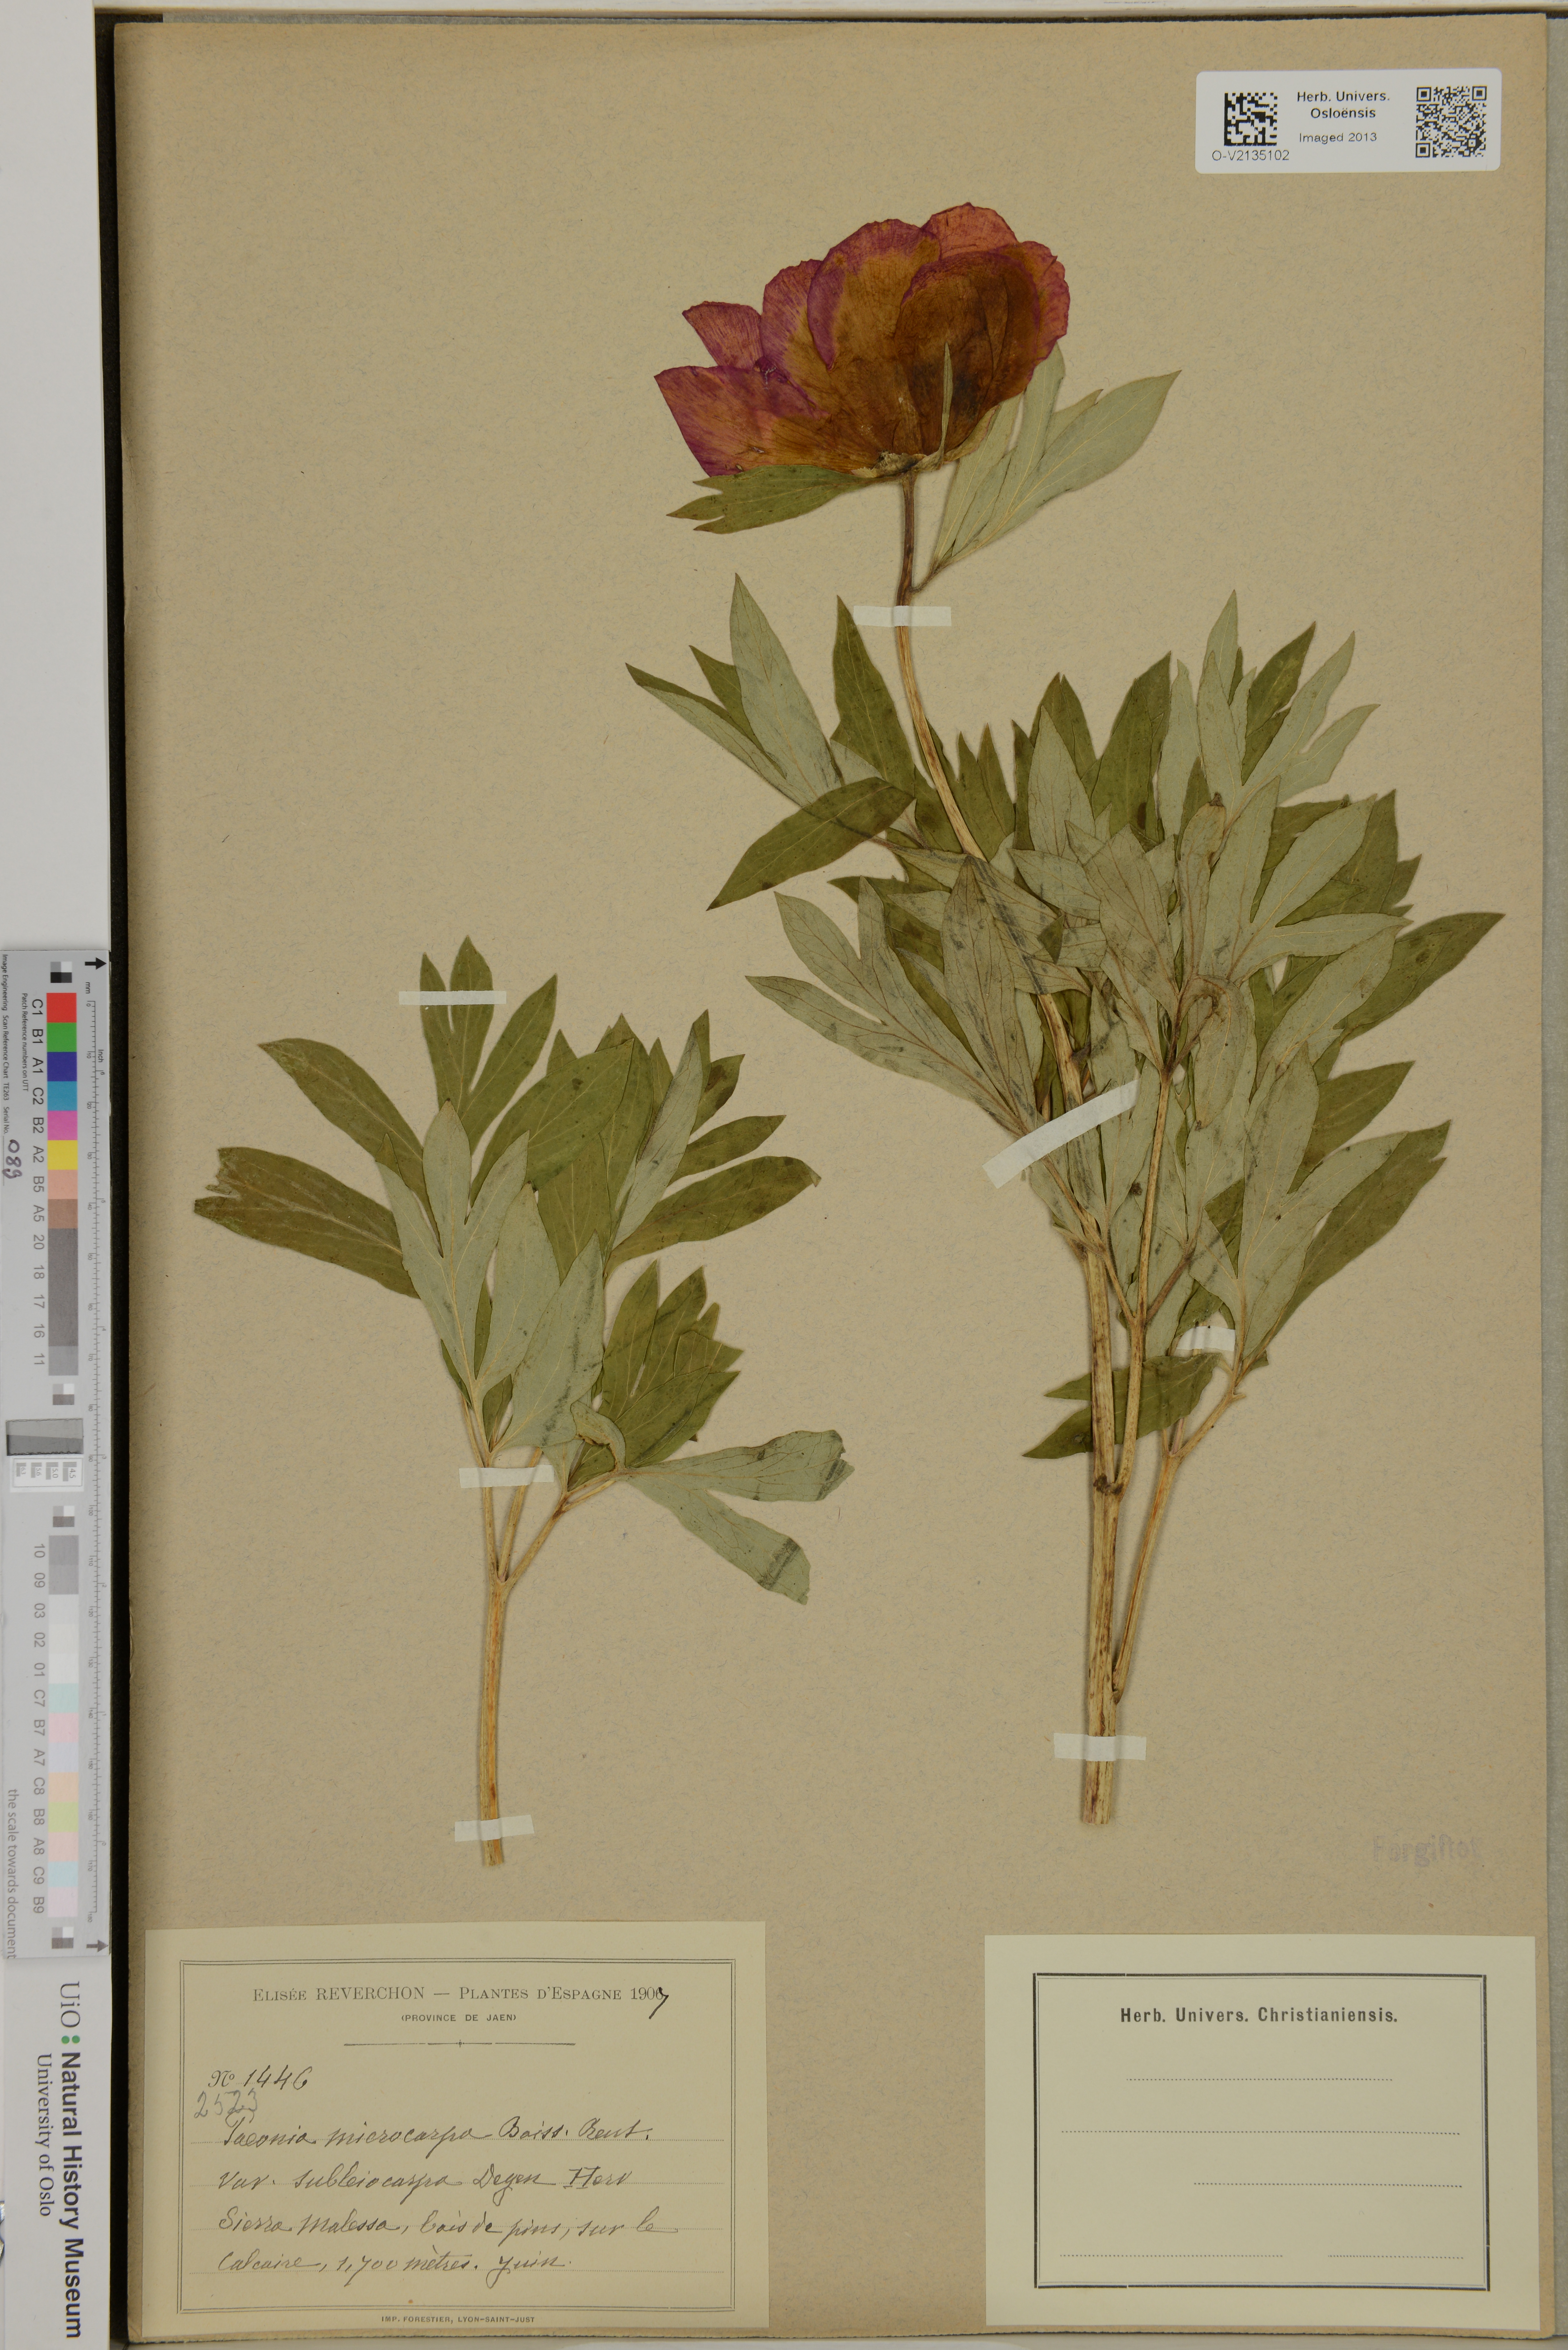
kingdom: Plantae
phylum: Tracheophyta
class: Magnoliopsida
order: Saxifragales
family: Paeoniaceae
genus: Paeonia
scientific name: Paeonia officinalis
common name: Common peony
